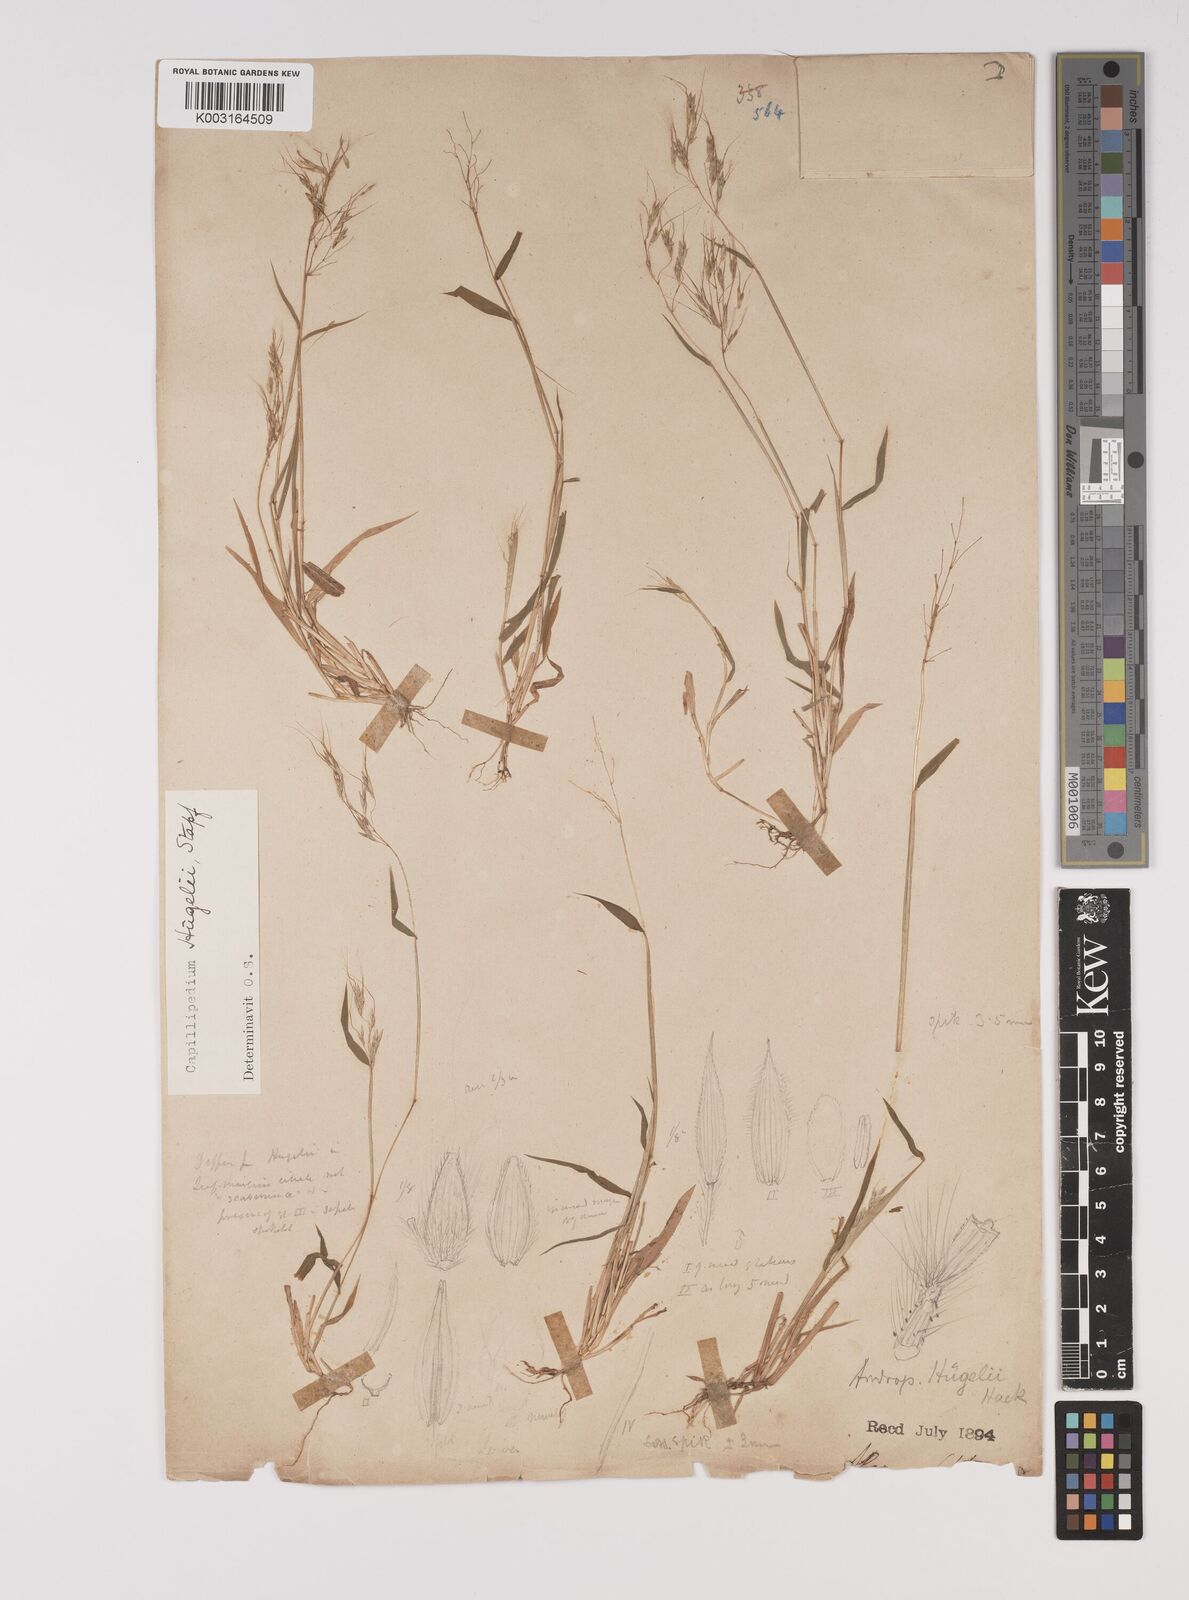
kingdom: Plantae
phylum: Tracheophyta
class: Liliopsida
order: Poales
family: Poaceae
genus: Capillipedium
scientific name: Capillipedium huegelii
